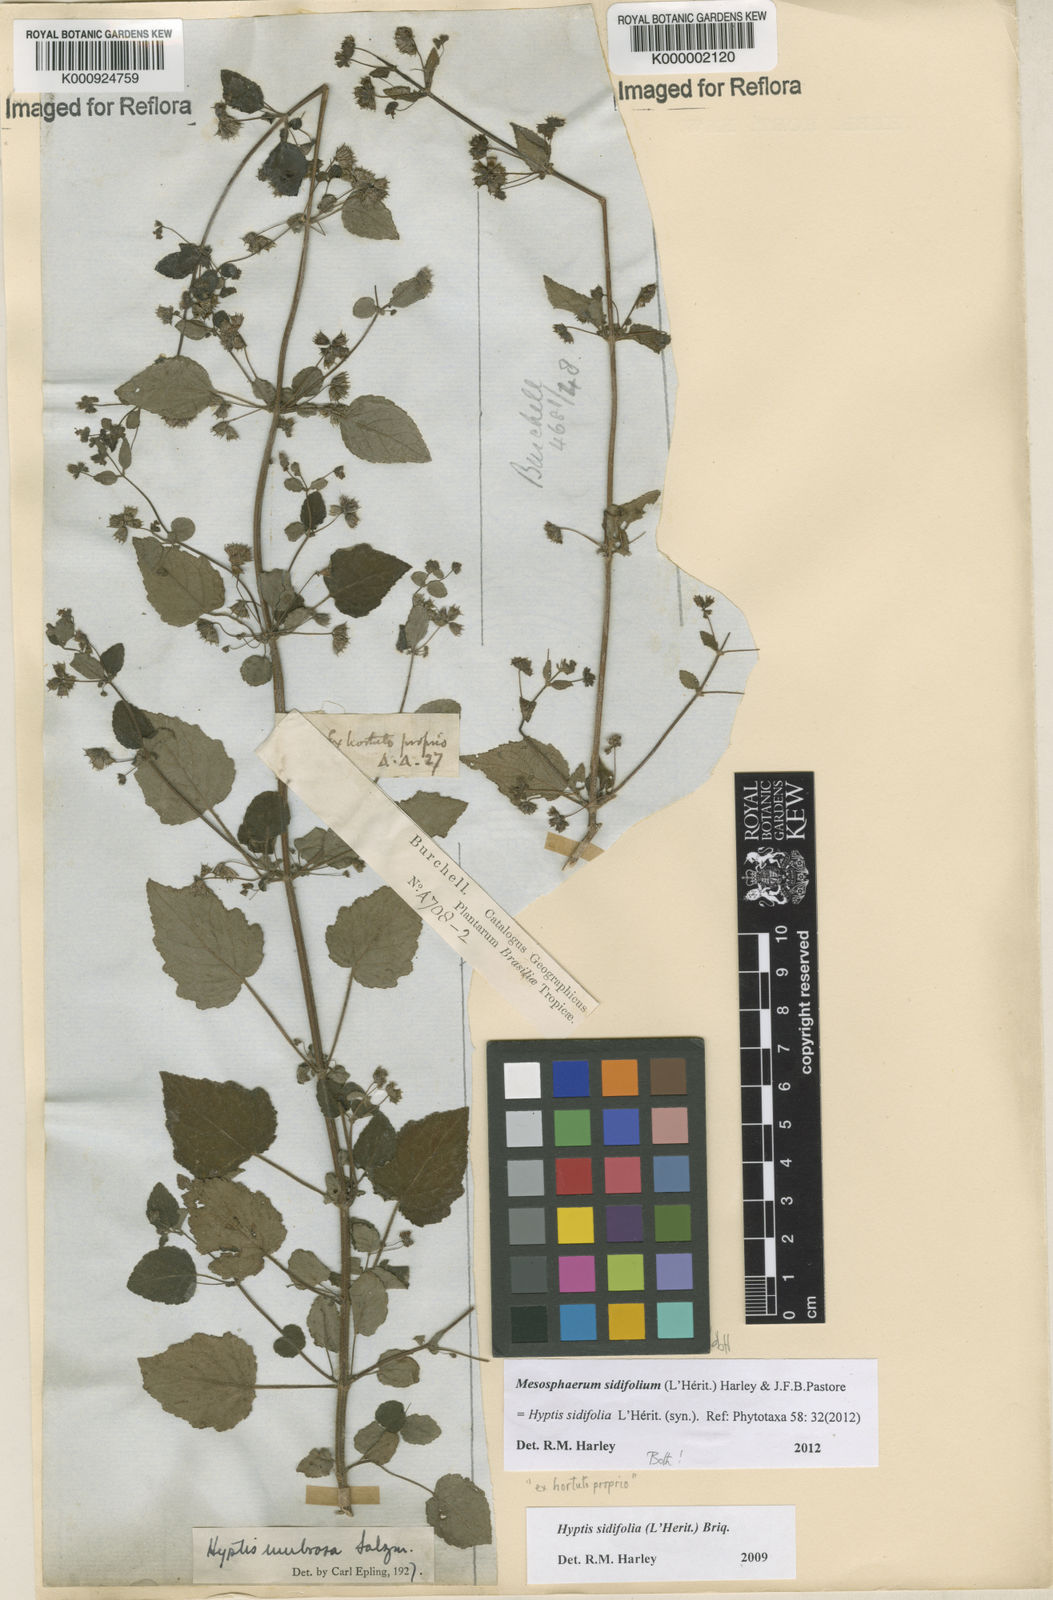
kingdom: Plantae
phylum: Tracheophyta
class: Magnoliopsida
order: Lamiales
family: Lamiaceae
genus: Mesosphaerum
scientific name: Mesosphaerum sidifolium
